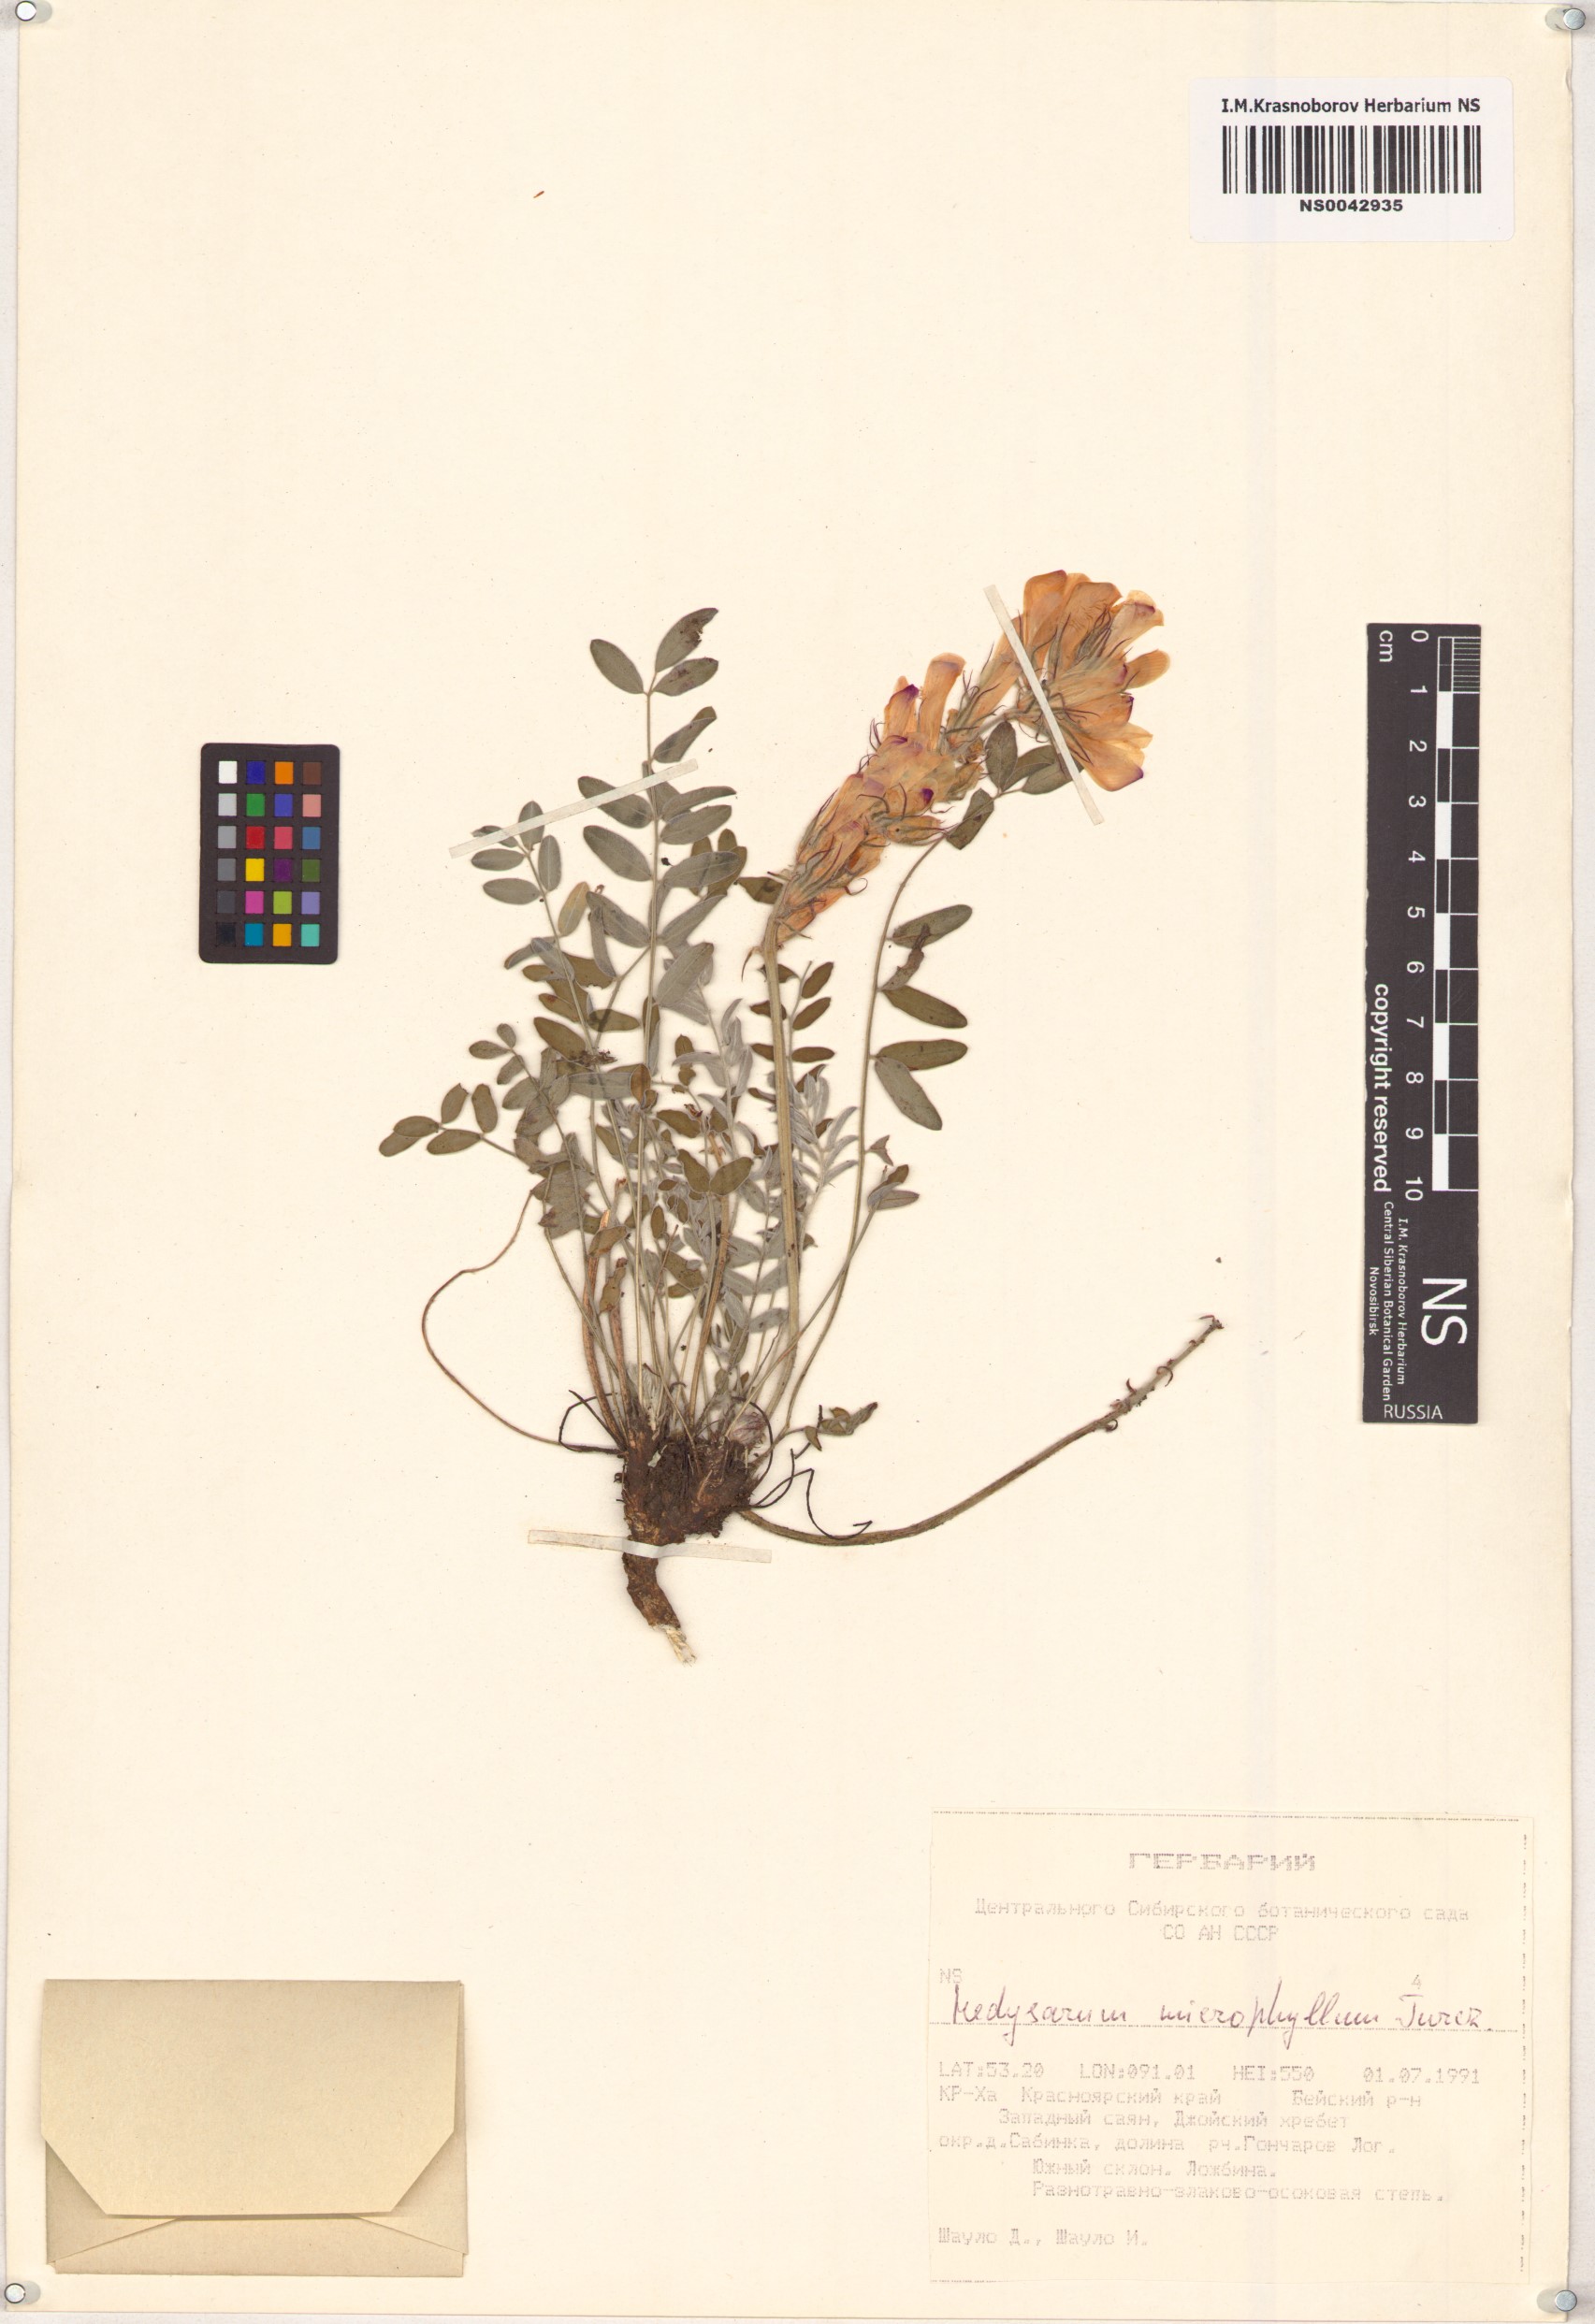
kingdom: Plantae
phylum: Tracheophyta
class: Magnoliopsida
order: Fabales
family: Fabaceae
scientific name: Fabaceae
